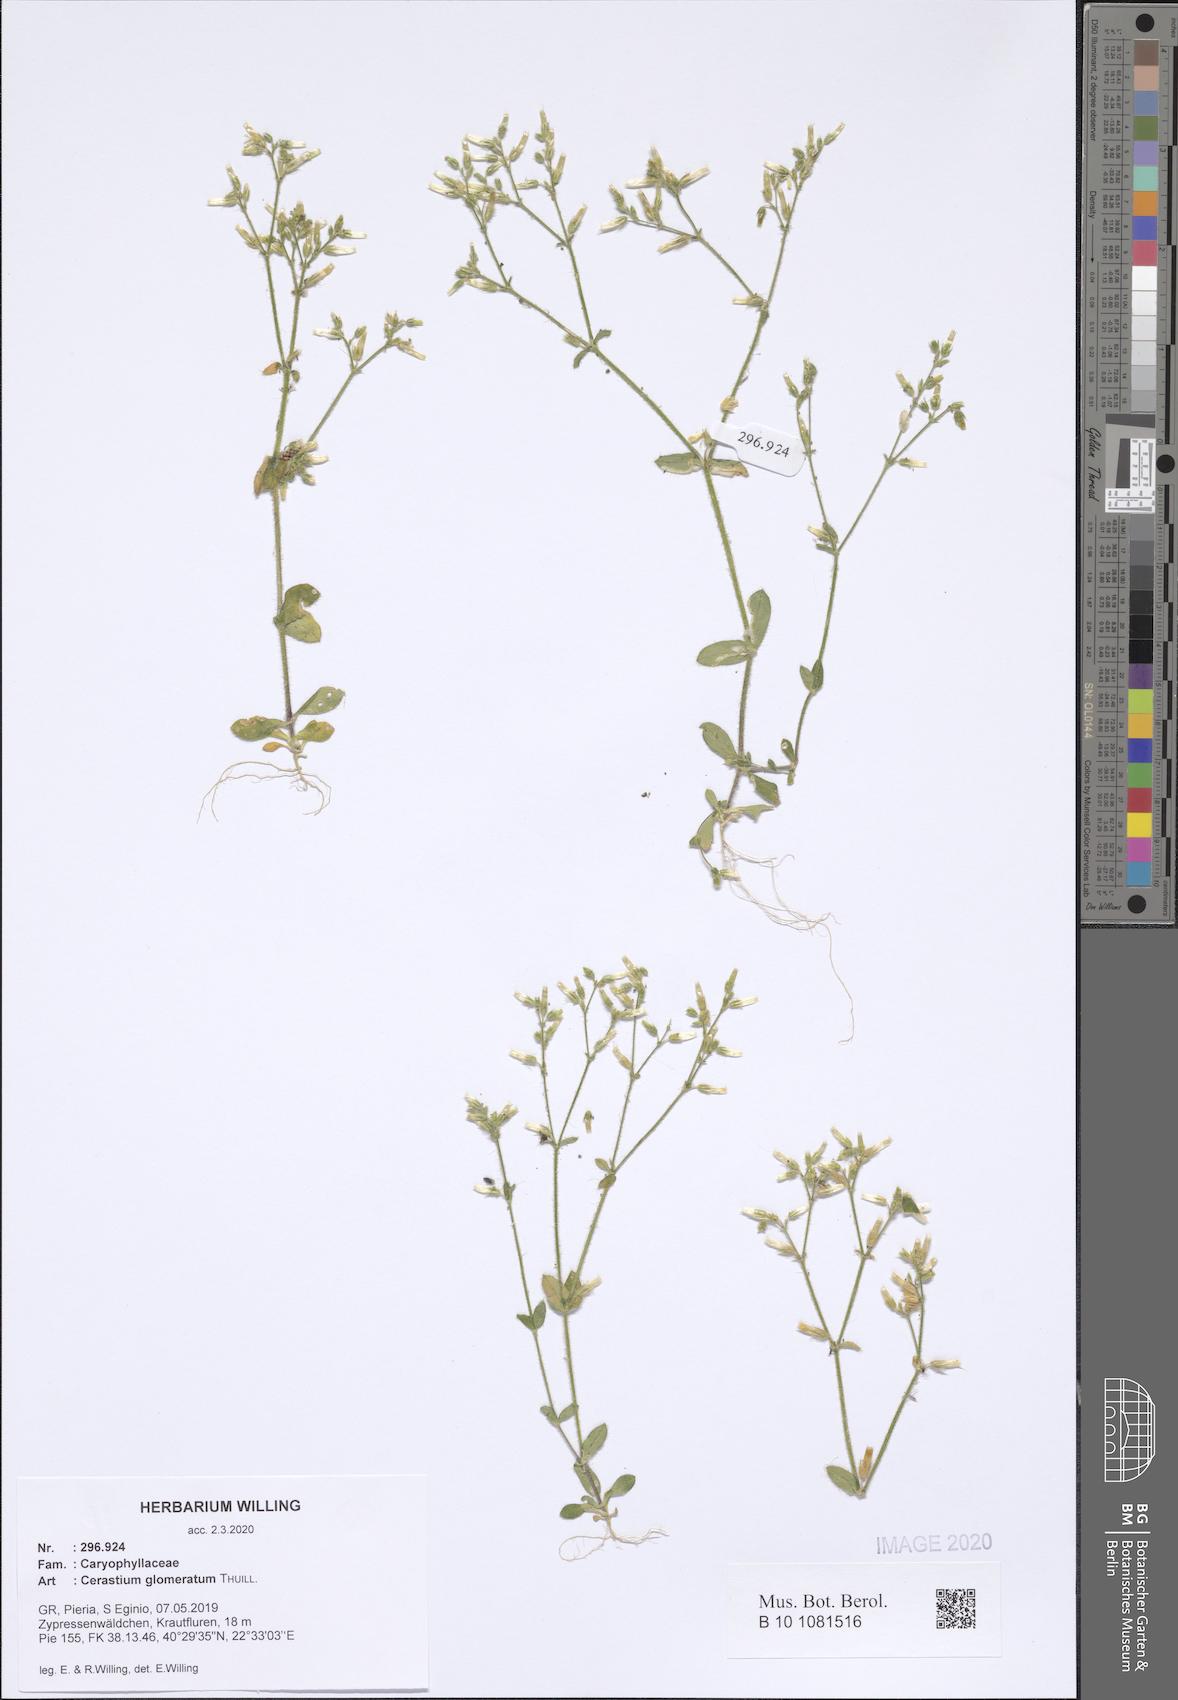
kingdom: Plantae
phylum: Tracheophyta
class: Magnoliopsida
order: Caryophyllales
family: Caryophyllaceae
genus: Cerastium
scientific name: Cerastium glomeratum
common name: Sticky chickweed
